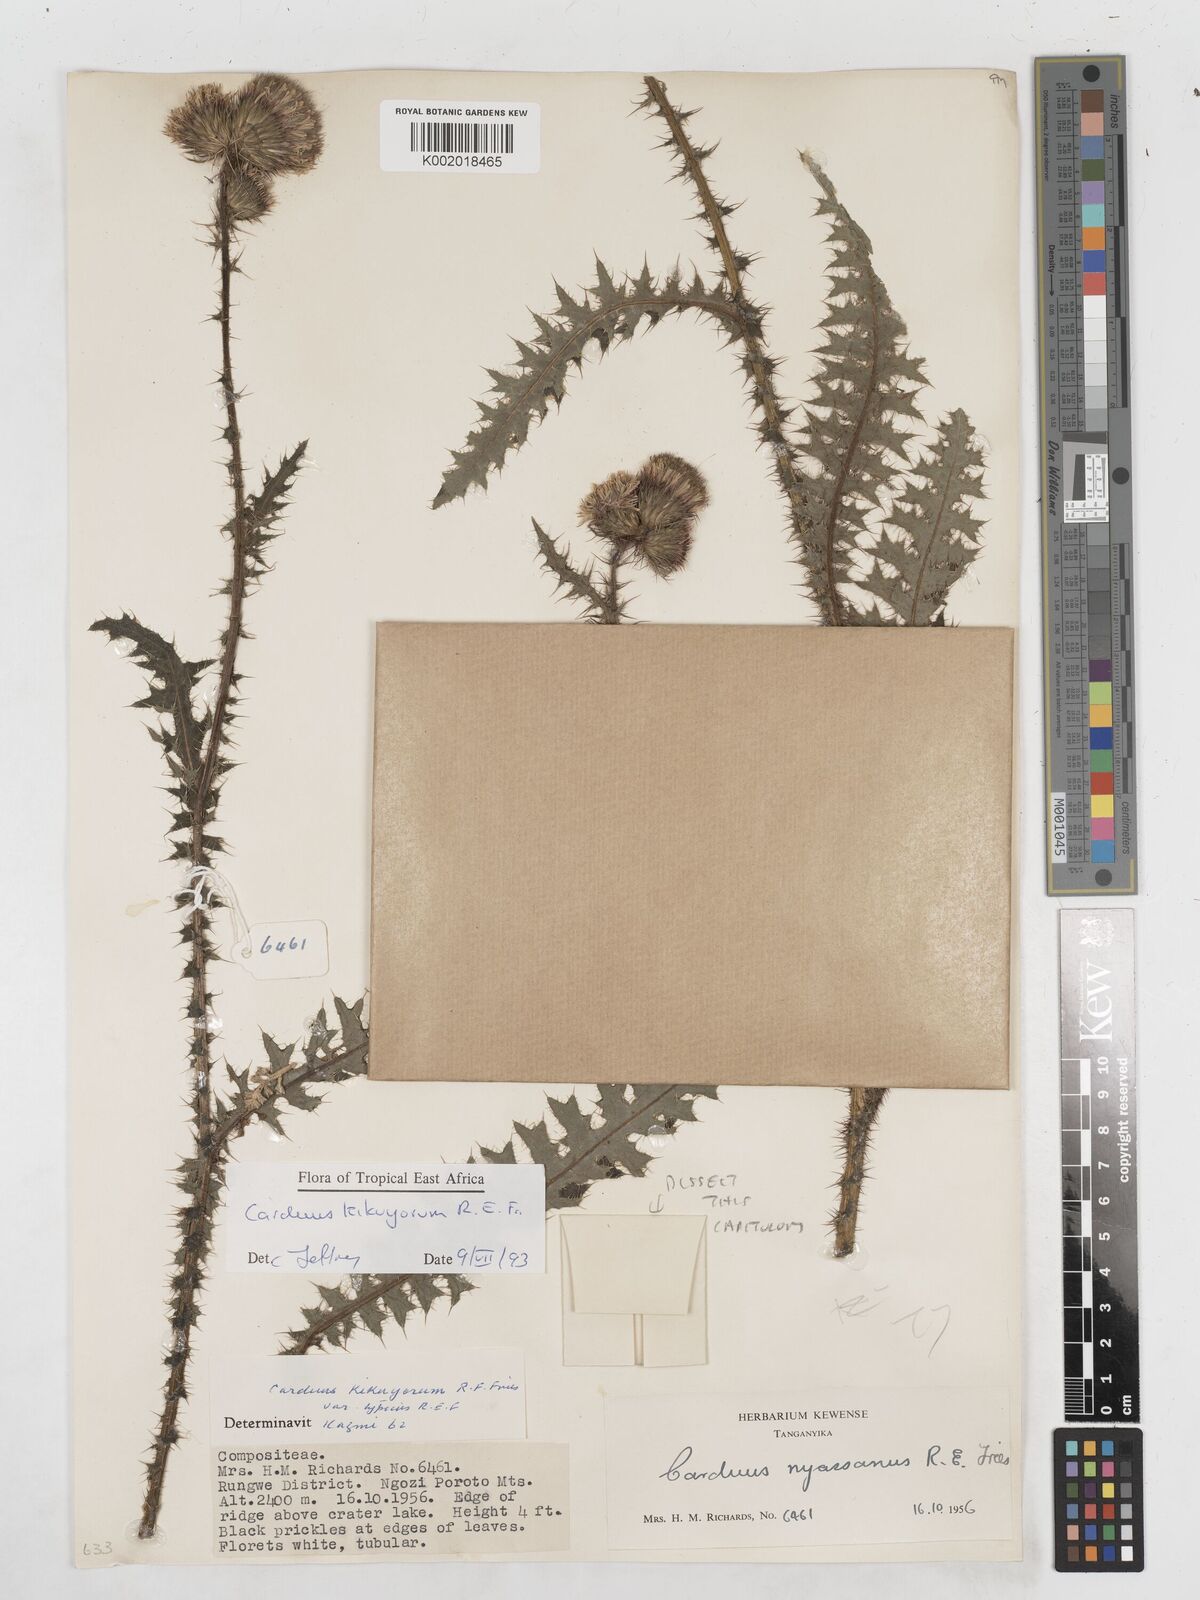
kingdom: Plantae
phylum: Tracheophyta
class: Magnoliopsida
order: Asterales
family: Asteraceae
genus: Carduus
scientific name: Carduus nyassanus
